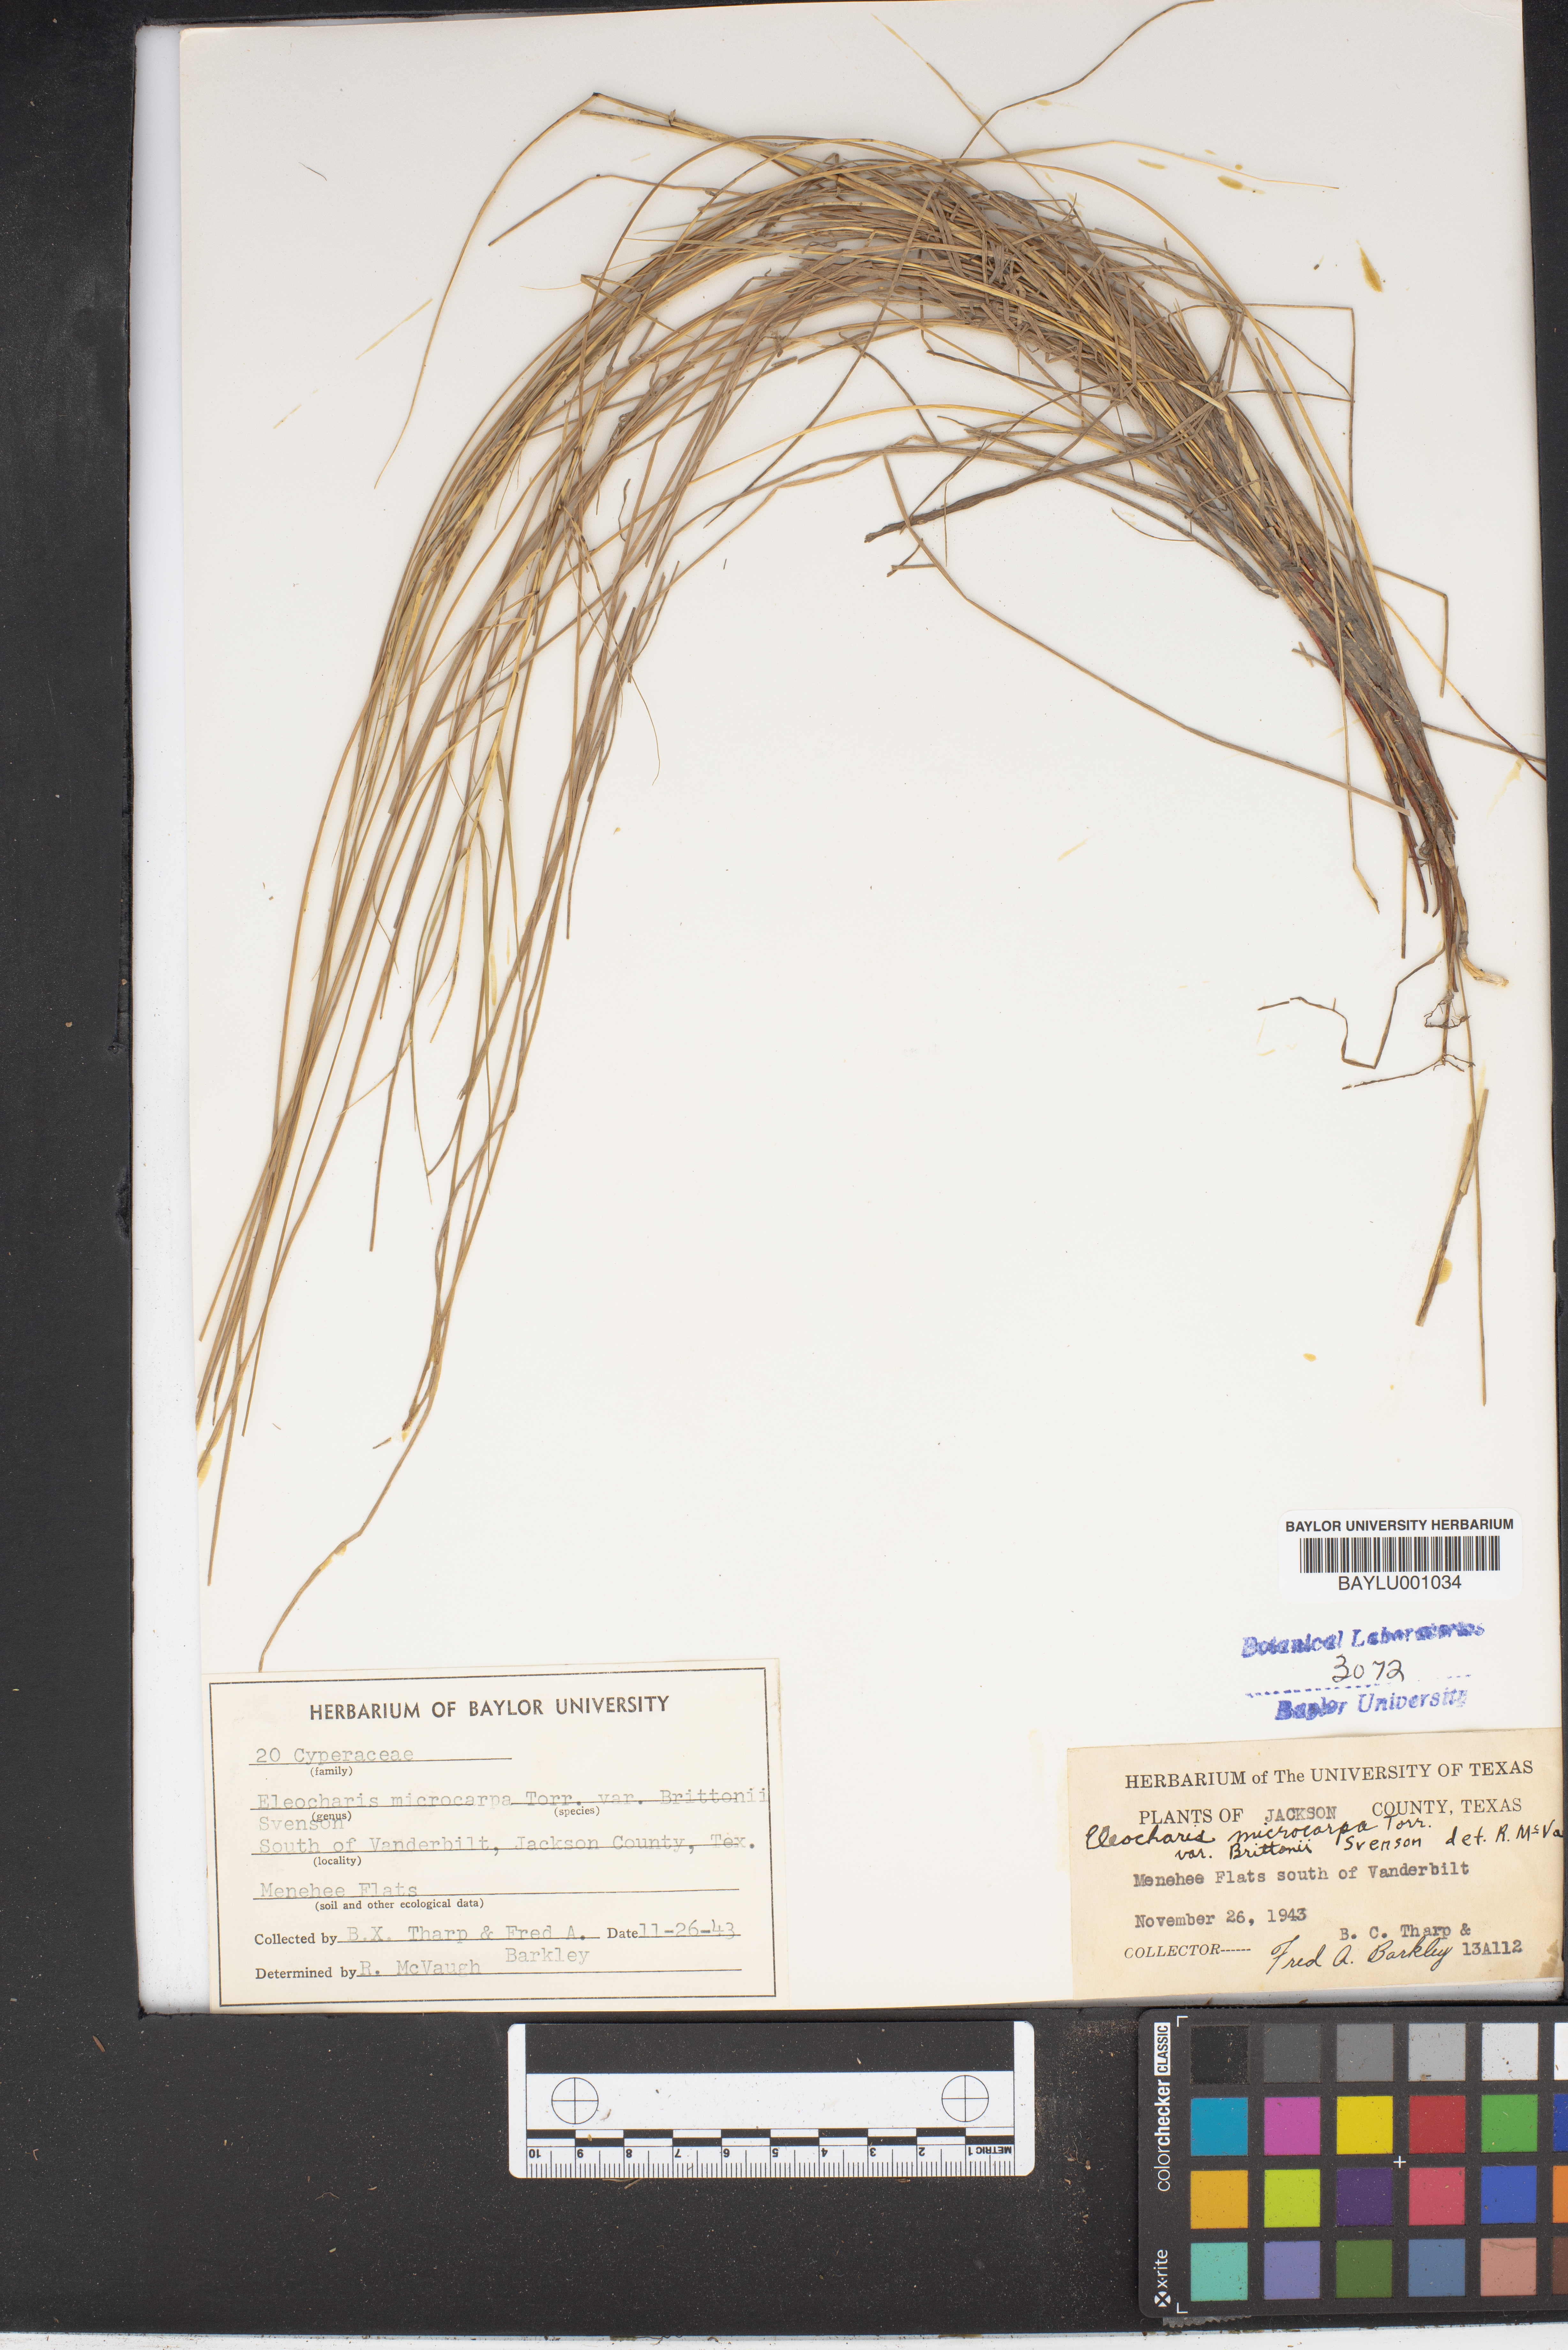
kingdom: Plantae
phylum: Tracheophyta
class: Liliopsida
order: Poales
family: Cyperaceae
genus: Eleocharis
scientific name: Eleocharis brittonii
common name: Britton's spike-rush
